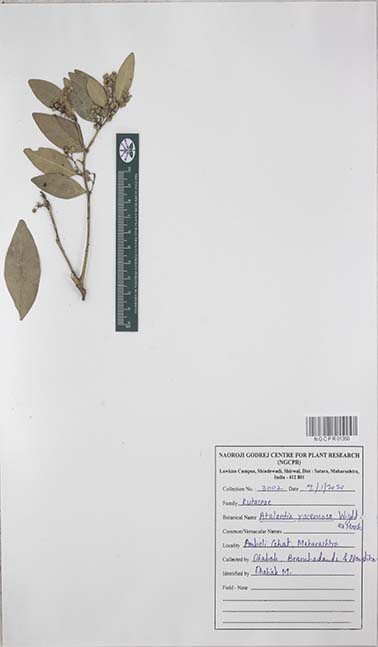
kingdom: Plantae
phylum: Tracheophyta
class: Magnoliopsida
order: Sapindales
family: Rutaceae
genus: Atalantia
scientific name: Atalantia racemosa
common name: Bombay atalantia
